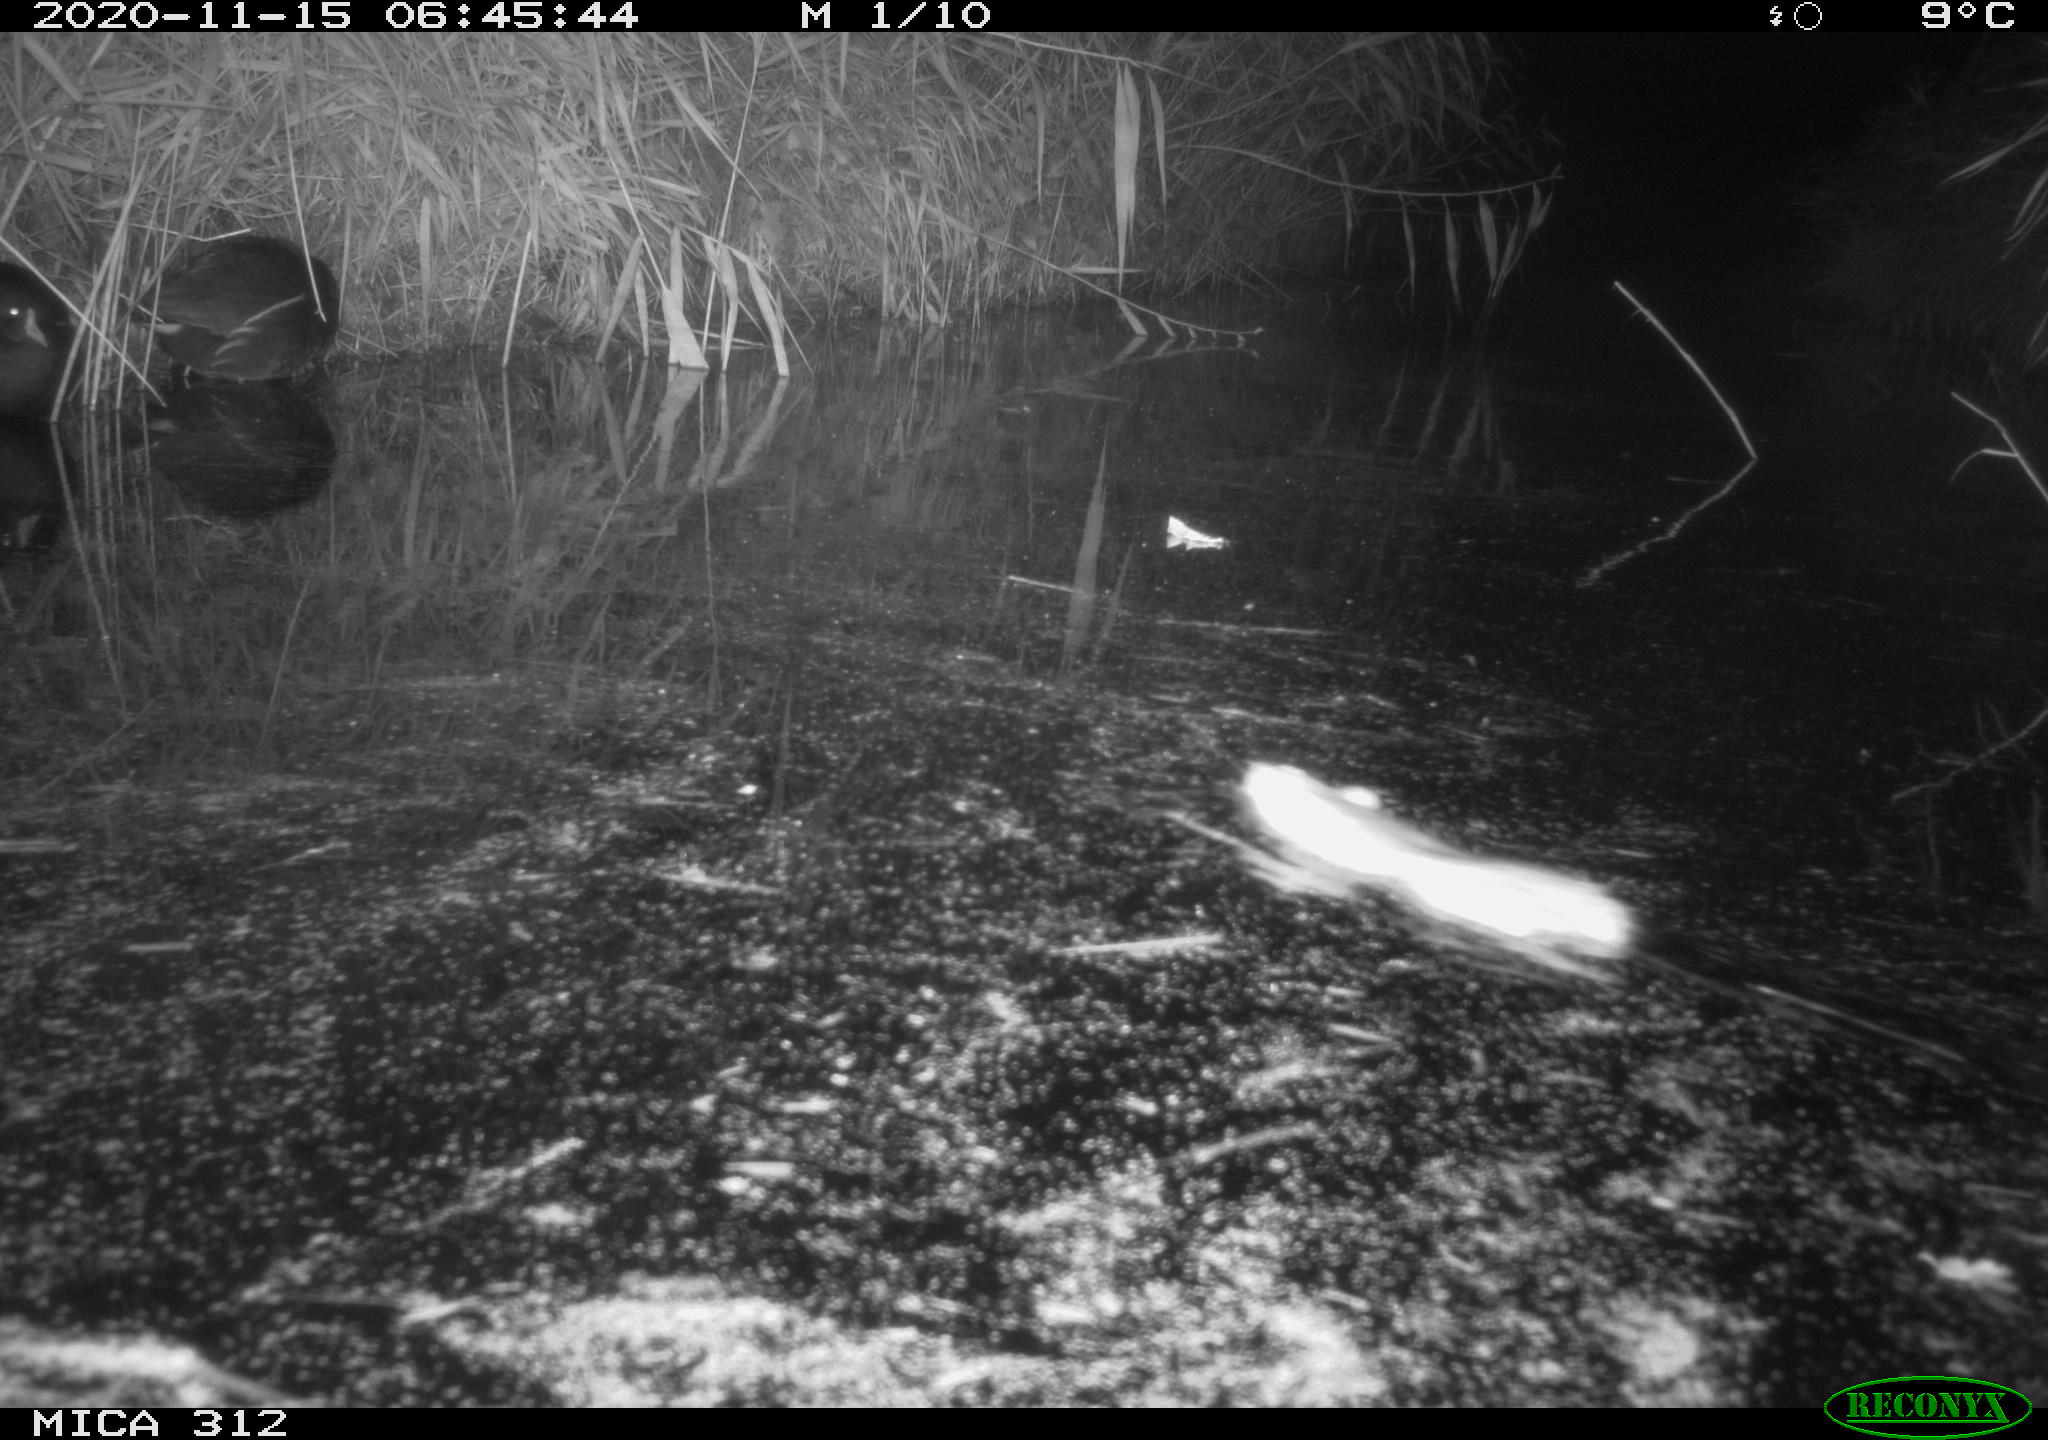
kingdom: Animalia
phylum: Chordata
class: Mammalia
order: Rodentia
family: Muridae
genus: Rattus
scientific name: Rattus norvegicus
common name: Brown rat
